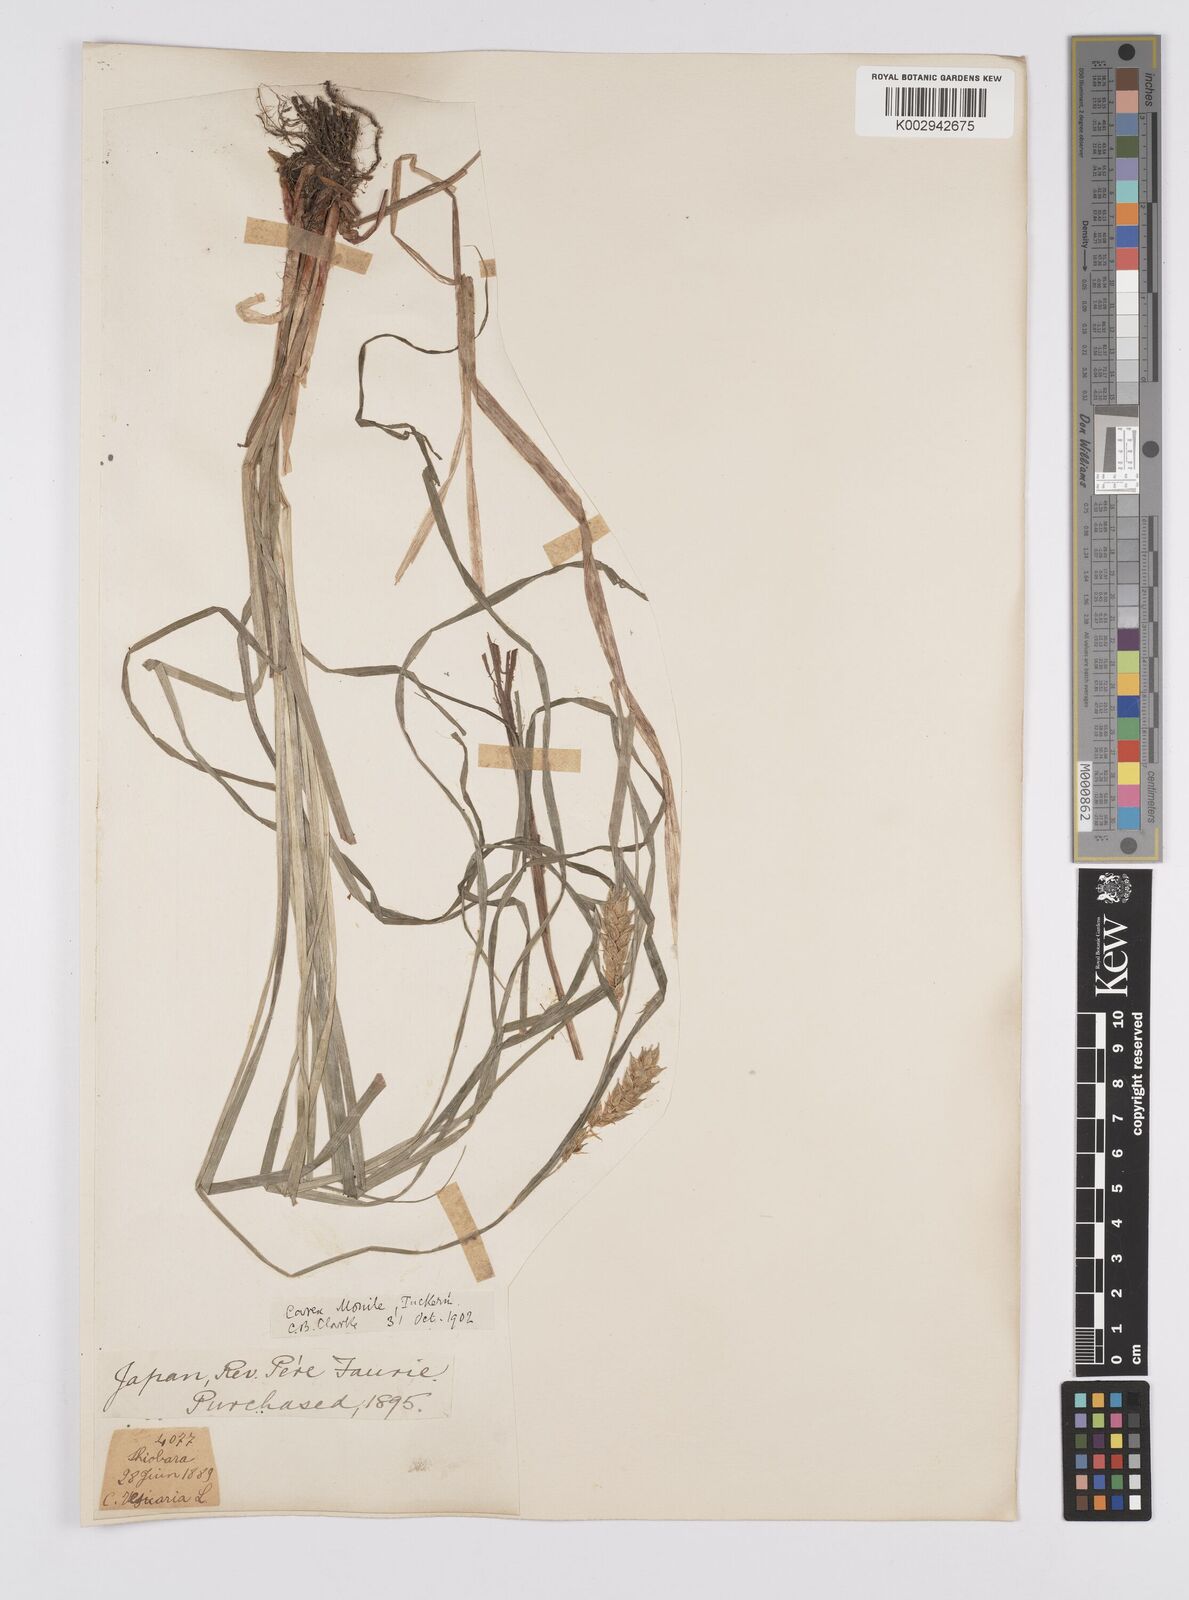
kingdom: Plantae
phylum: Tracheophyta
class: Liliopsida
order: Poales
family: Cyperaceae
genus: Carex
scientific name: Carex vesicaria
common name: Bladder-sedge
